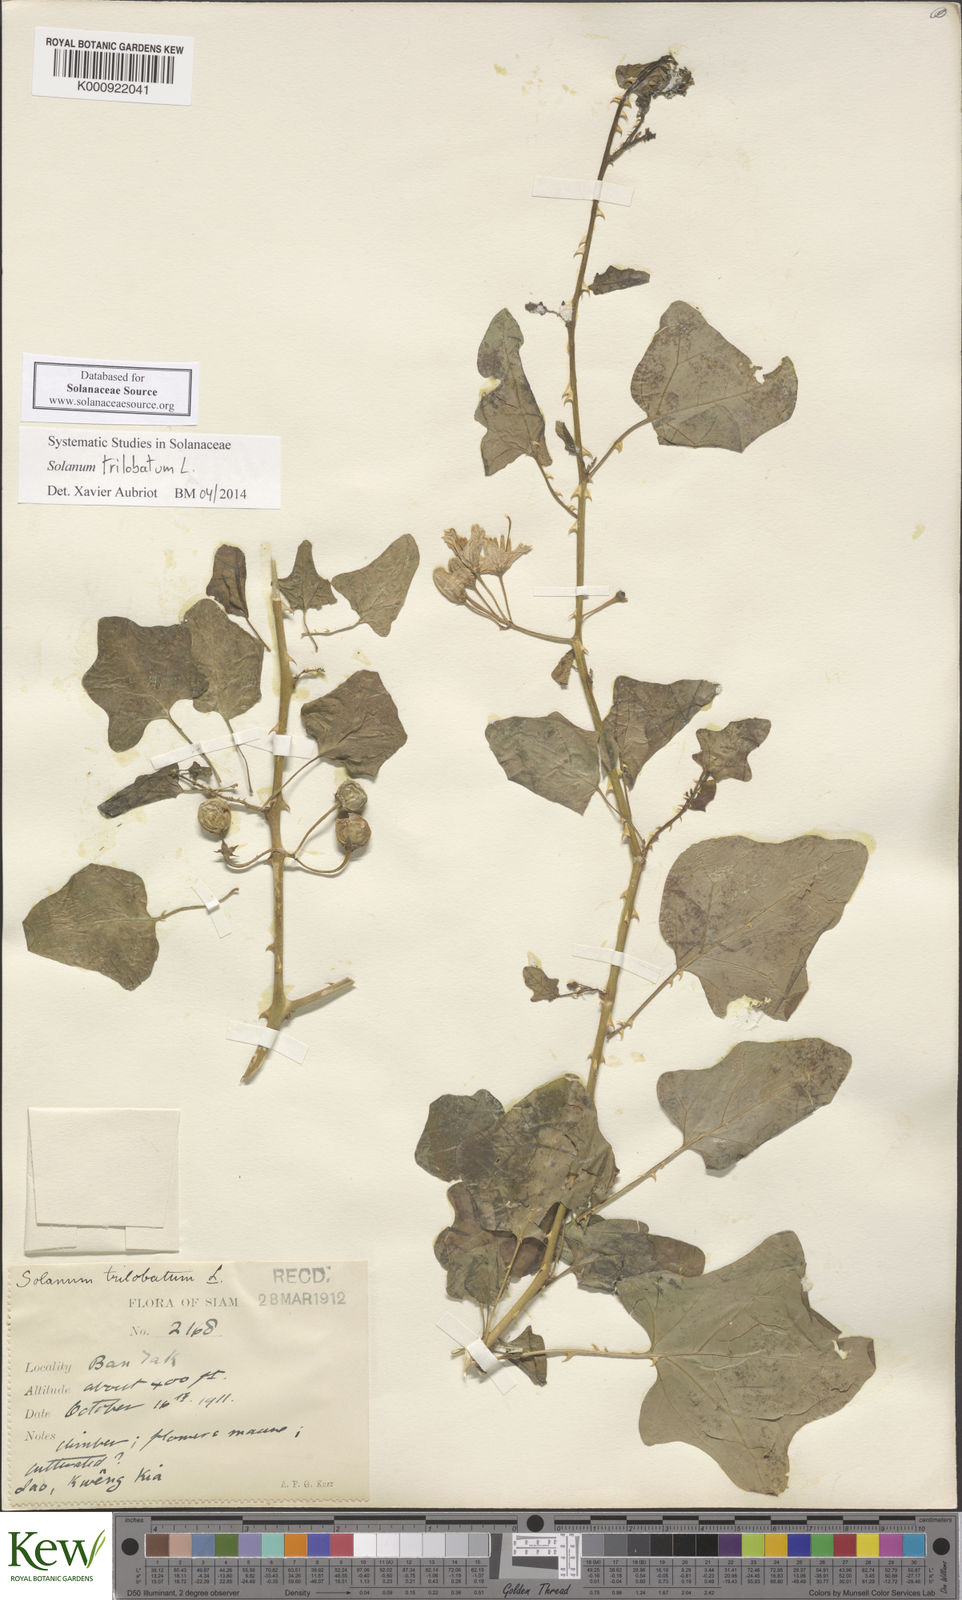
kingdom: Plantae
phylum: Tracheophyta
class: Magnoliopsida
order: Solanales
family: Solanaceae
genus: Solanum
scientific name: Solanum trilobatum
